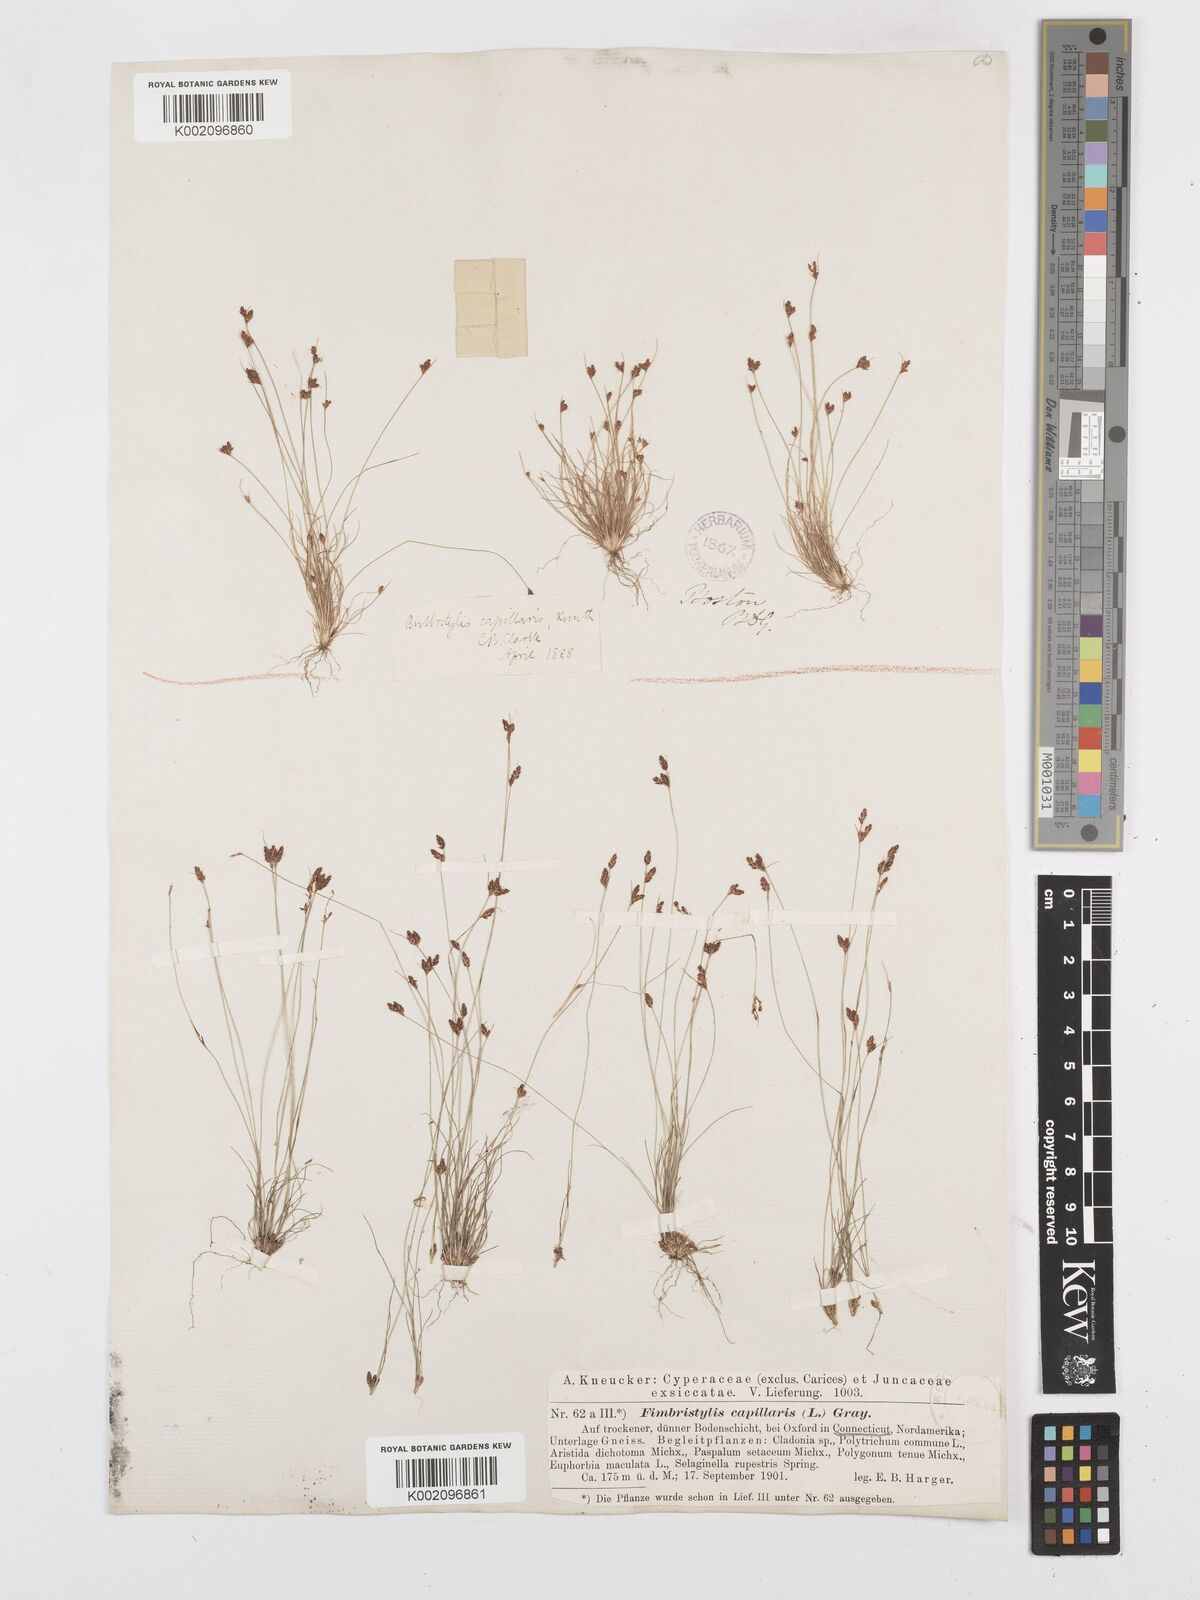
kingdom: Plantae
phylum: Tracheophyta
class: Liliopsida
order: Poales
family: Cyperaceae
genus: Bulbostylis
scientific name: Bulbostylis capillaris
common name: Densetuft hairsedge
